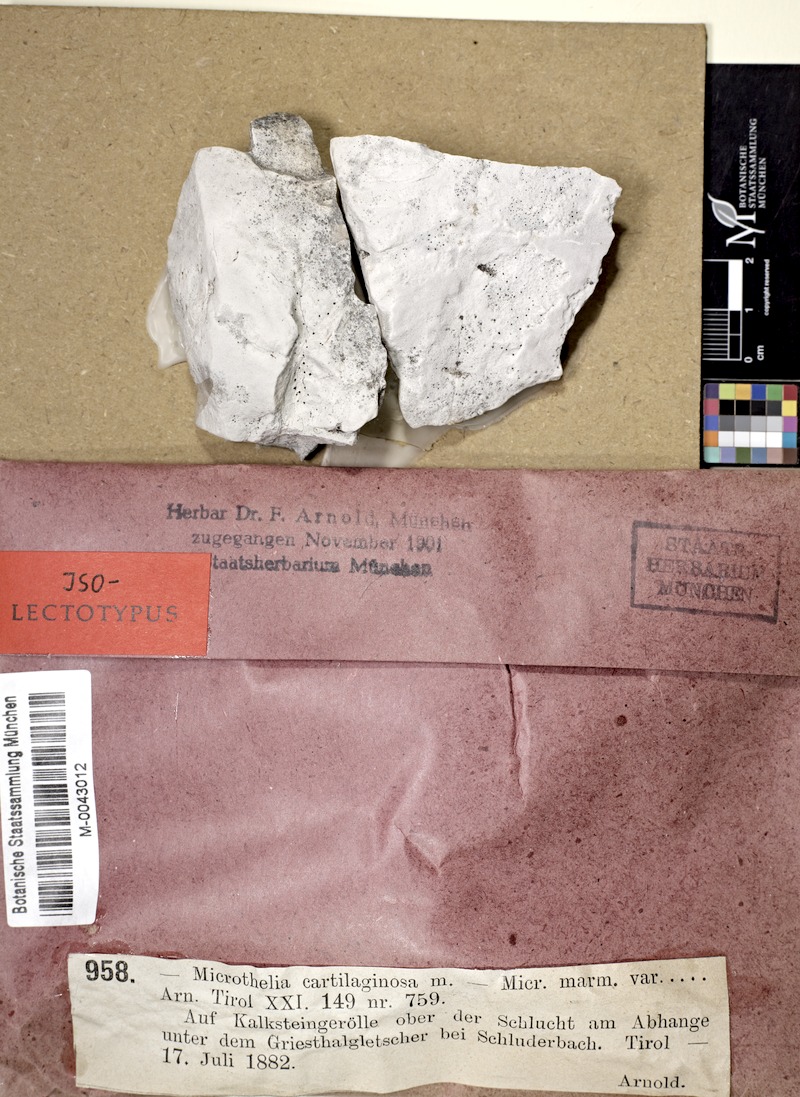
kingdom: Fungi
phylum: Ascomycota
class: Dothideomycetes
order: Pleosporales
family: Dacampiaceae
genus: Polycoccum
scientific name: Polycoccum cartilaginosum
